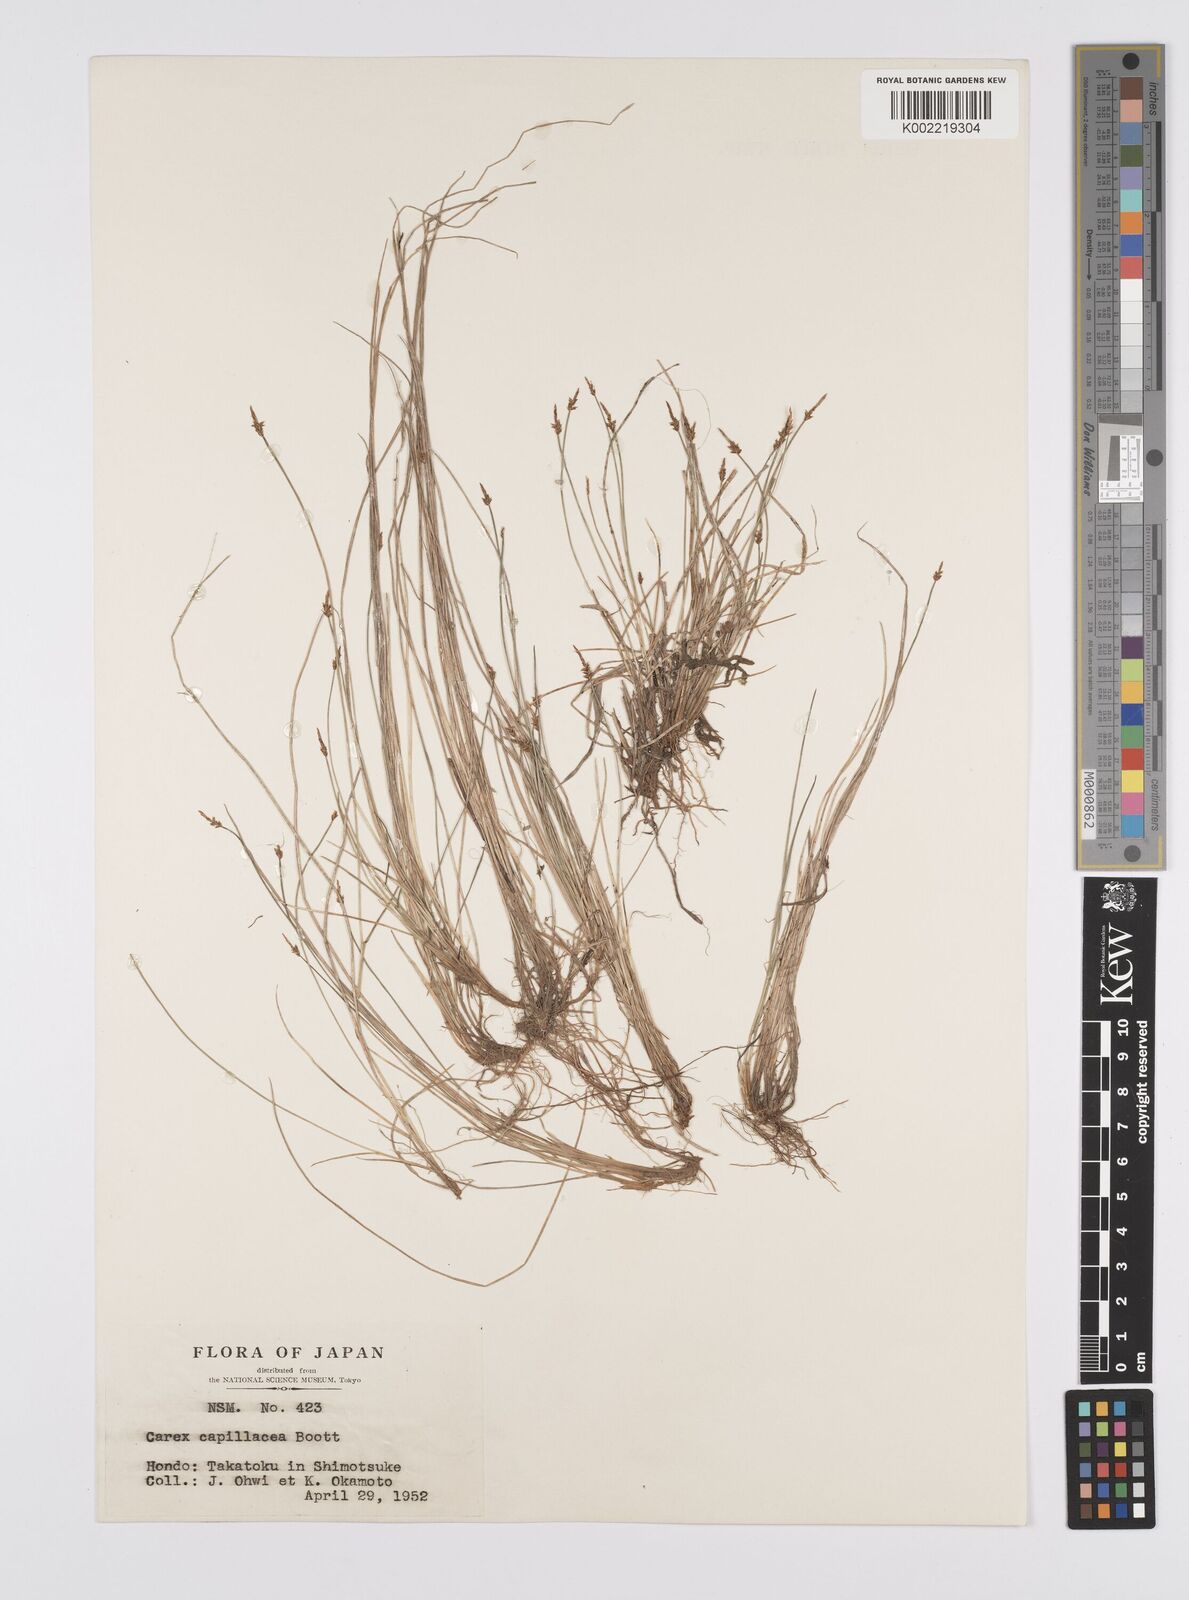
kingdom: Plantae
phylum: Tracheophyta
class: Liliopsida
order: Poales
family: Cyperaceae
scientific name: Cyperaceae
